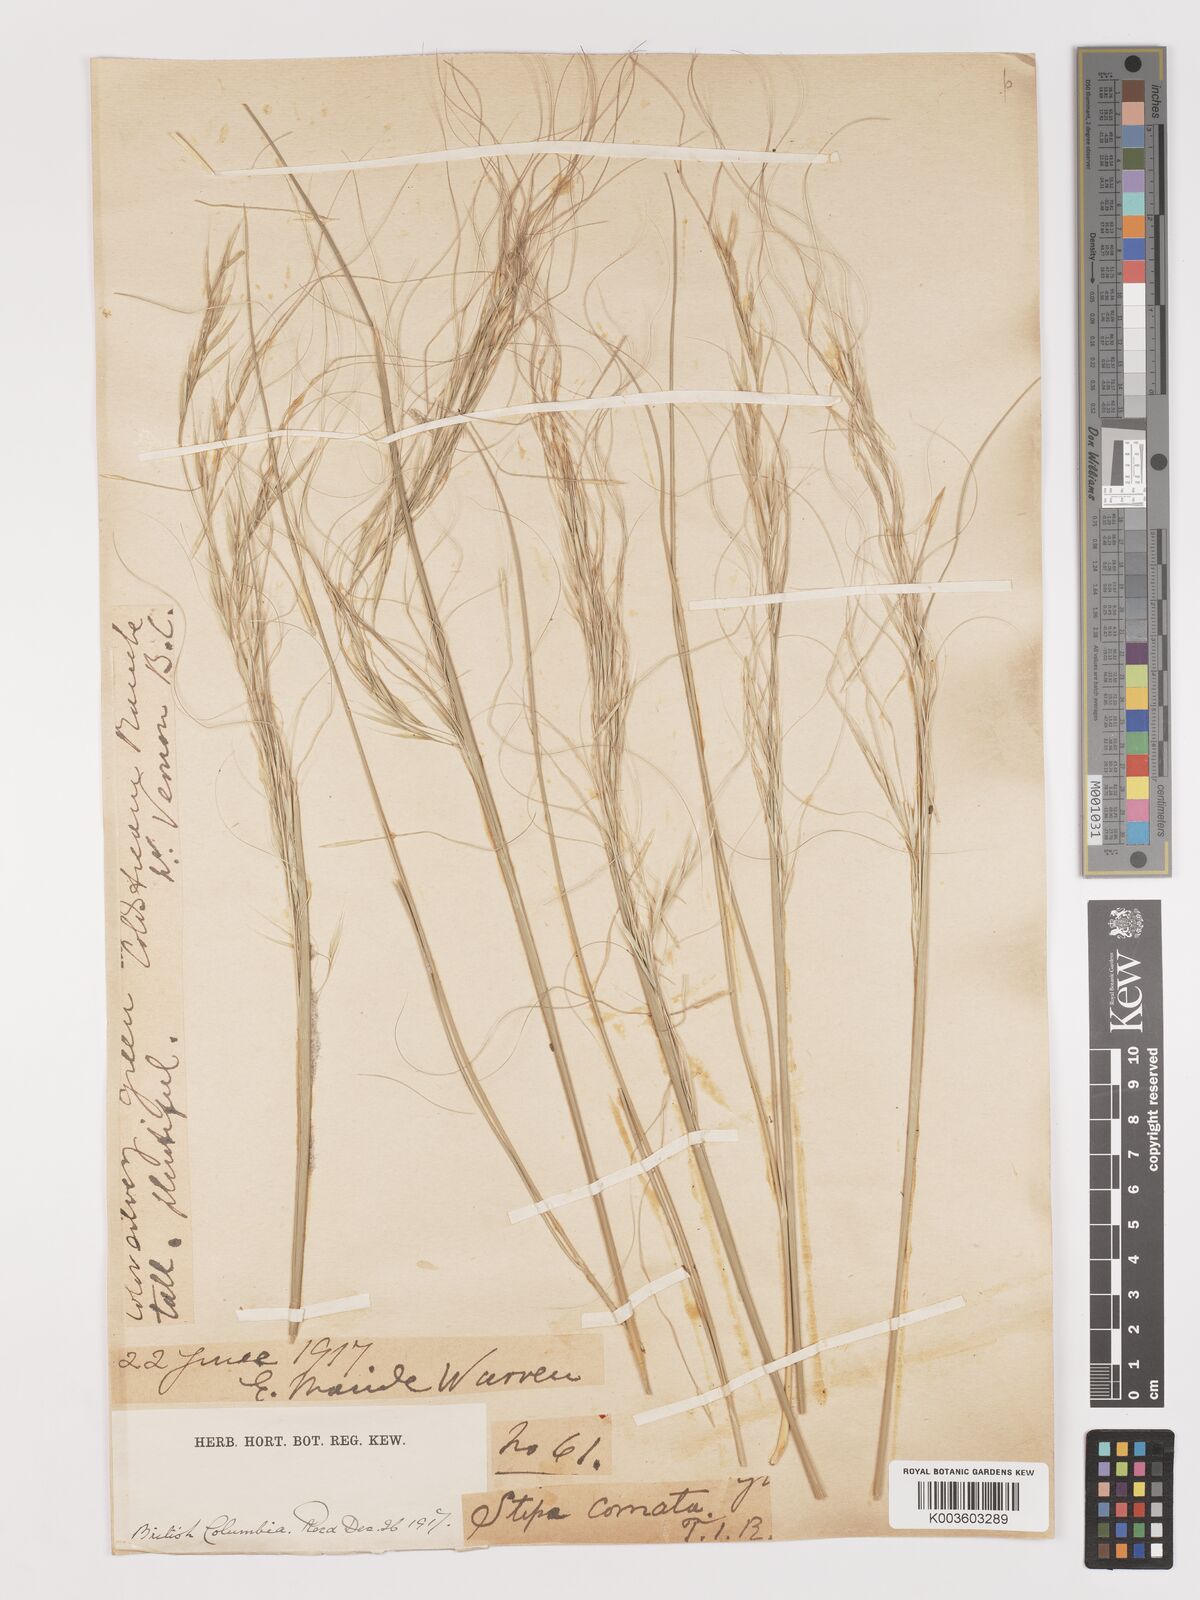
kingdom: Plantae
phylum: Tracheophyta
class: Liliopsida
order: Poales
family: Poaceae
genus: Stipa
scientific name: Stipa
